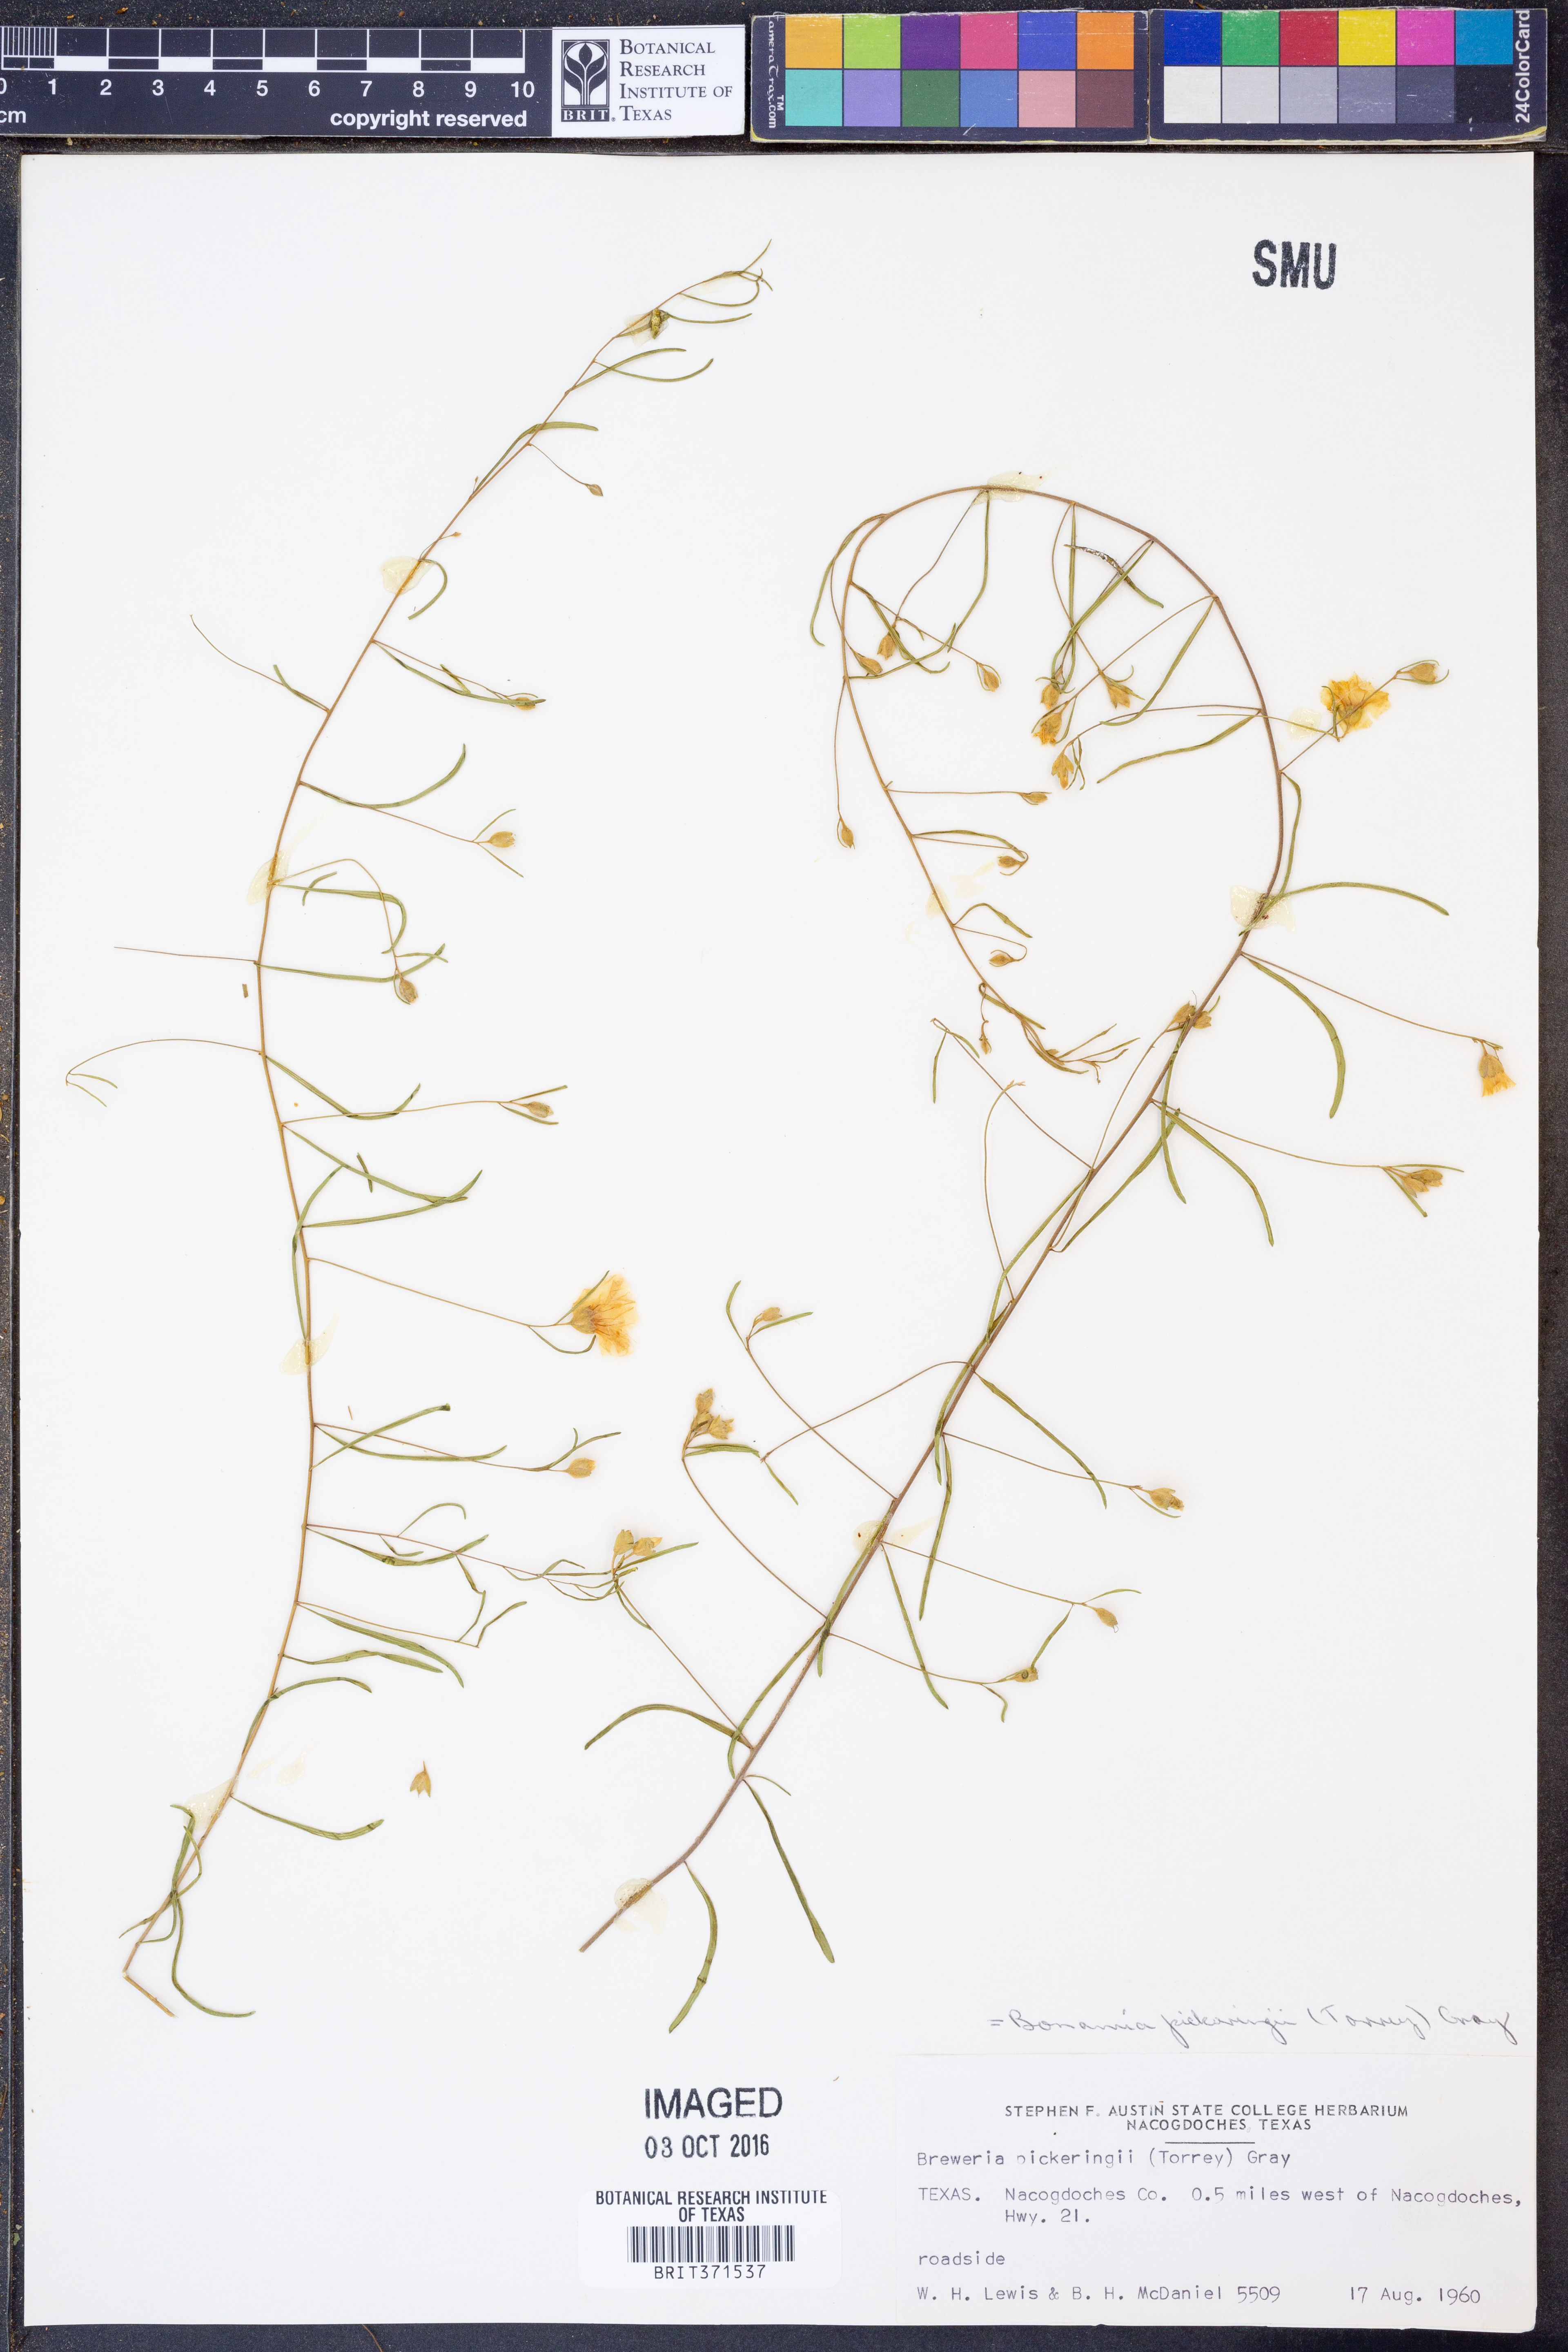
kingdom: Plantae
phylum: Tracheophyta
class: Magnoliopsida
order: Solanales
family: Convolvulaceae
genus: Stylisma
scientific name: Stylisma pickeringii
